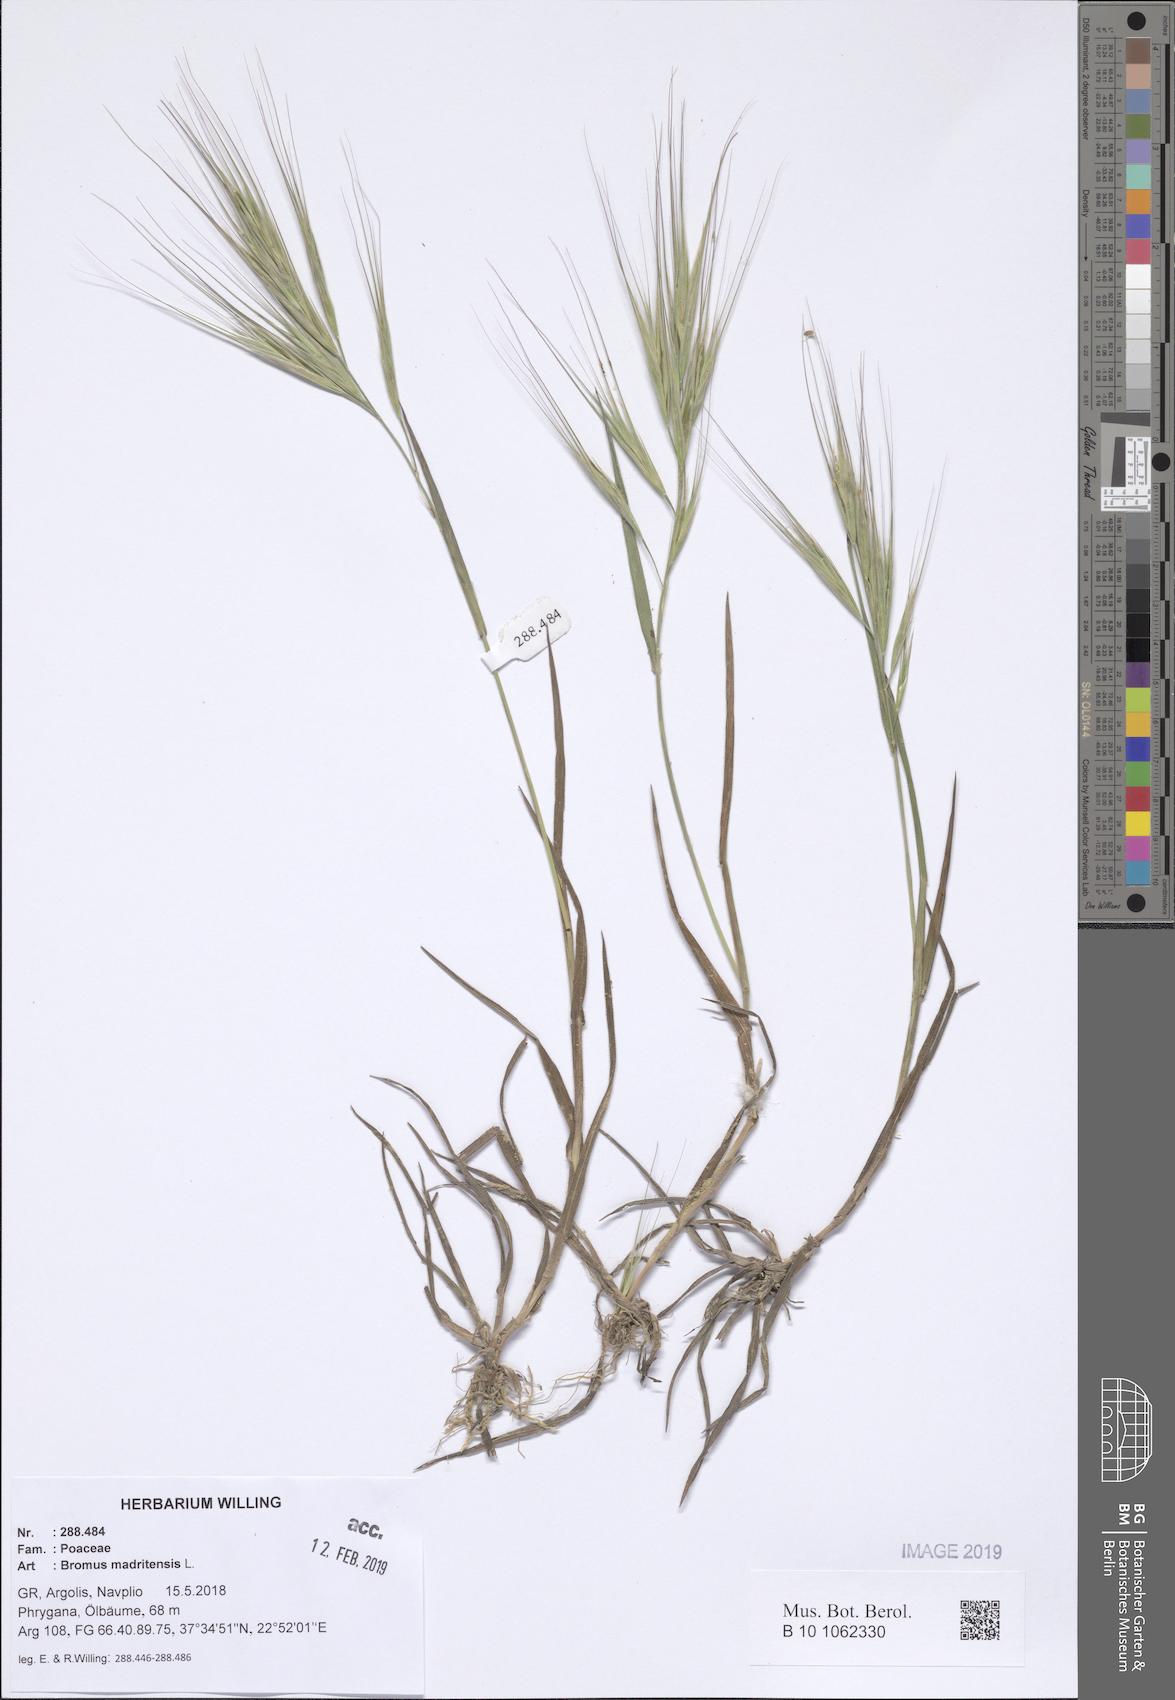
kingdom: Plantae
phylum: Tracheophyta
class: Liliopsida
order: Poales
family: Poaceae
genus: Bromus
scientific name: Bromus madritensis
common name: Compact brome
